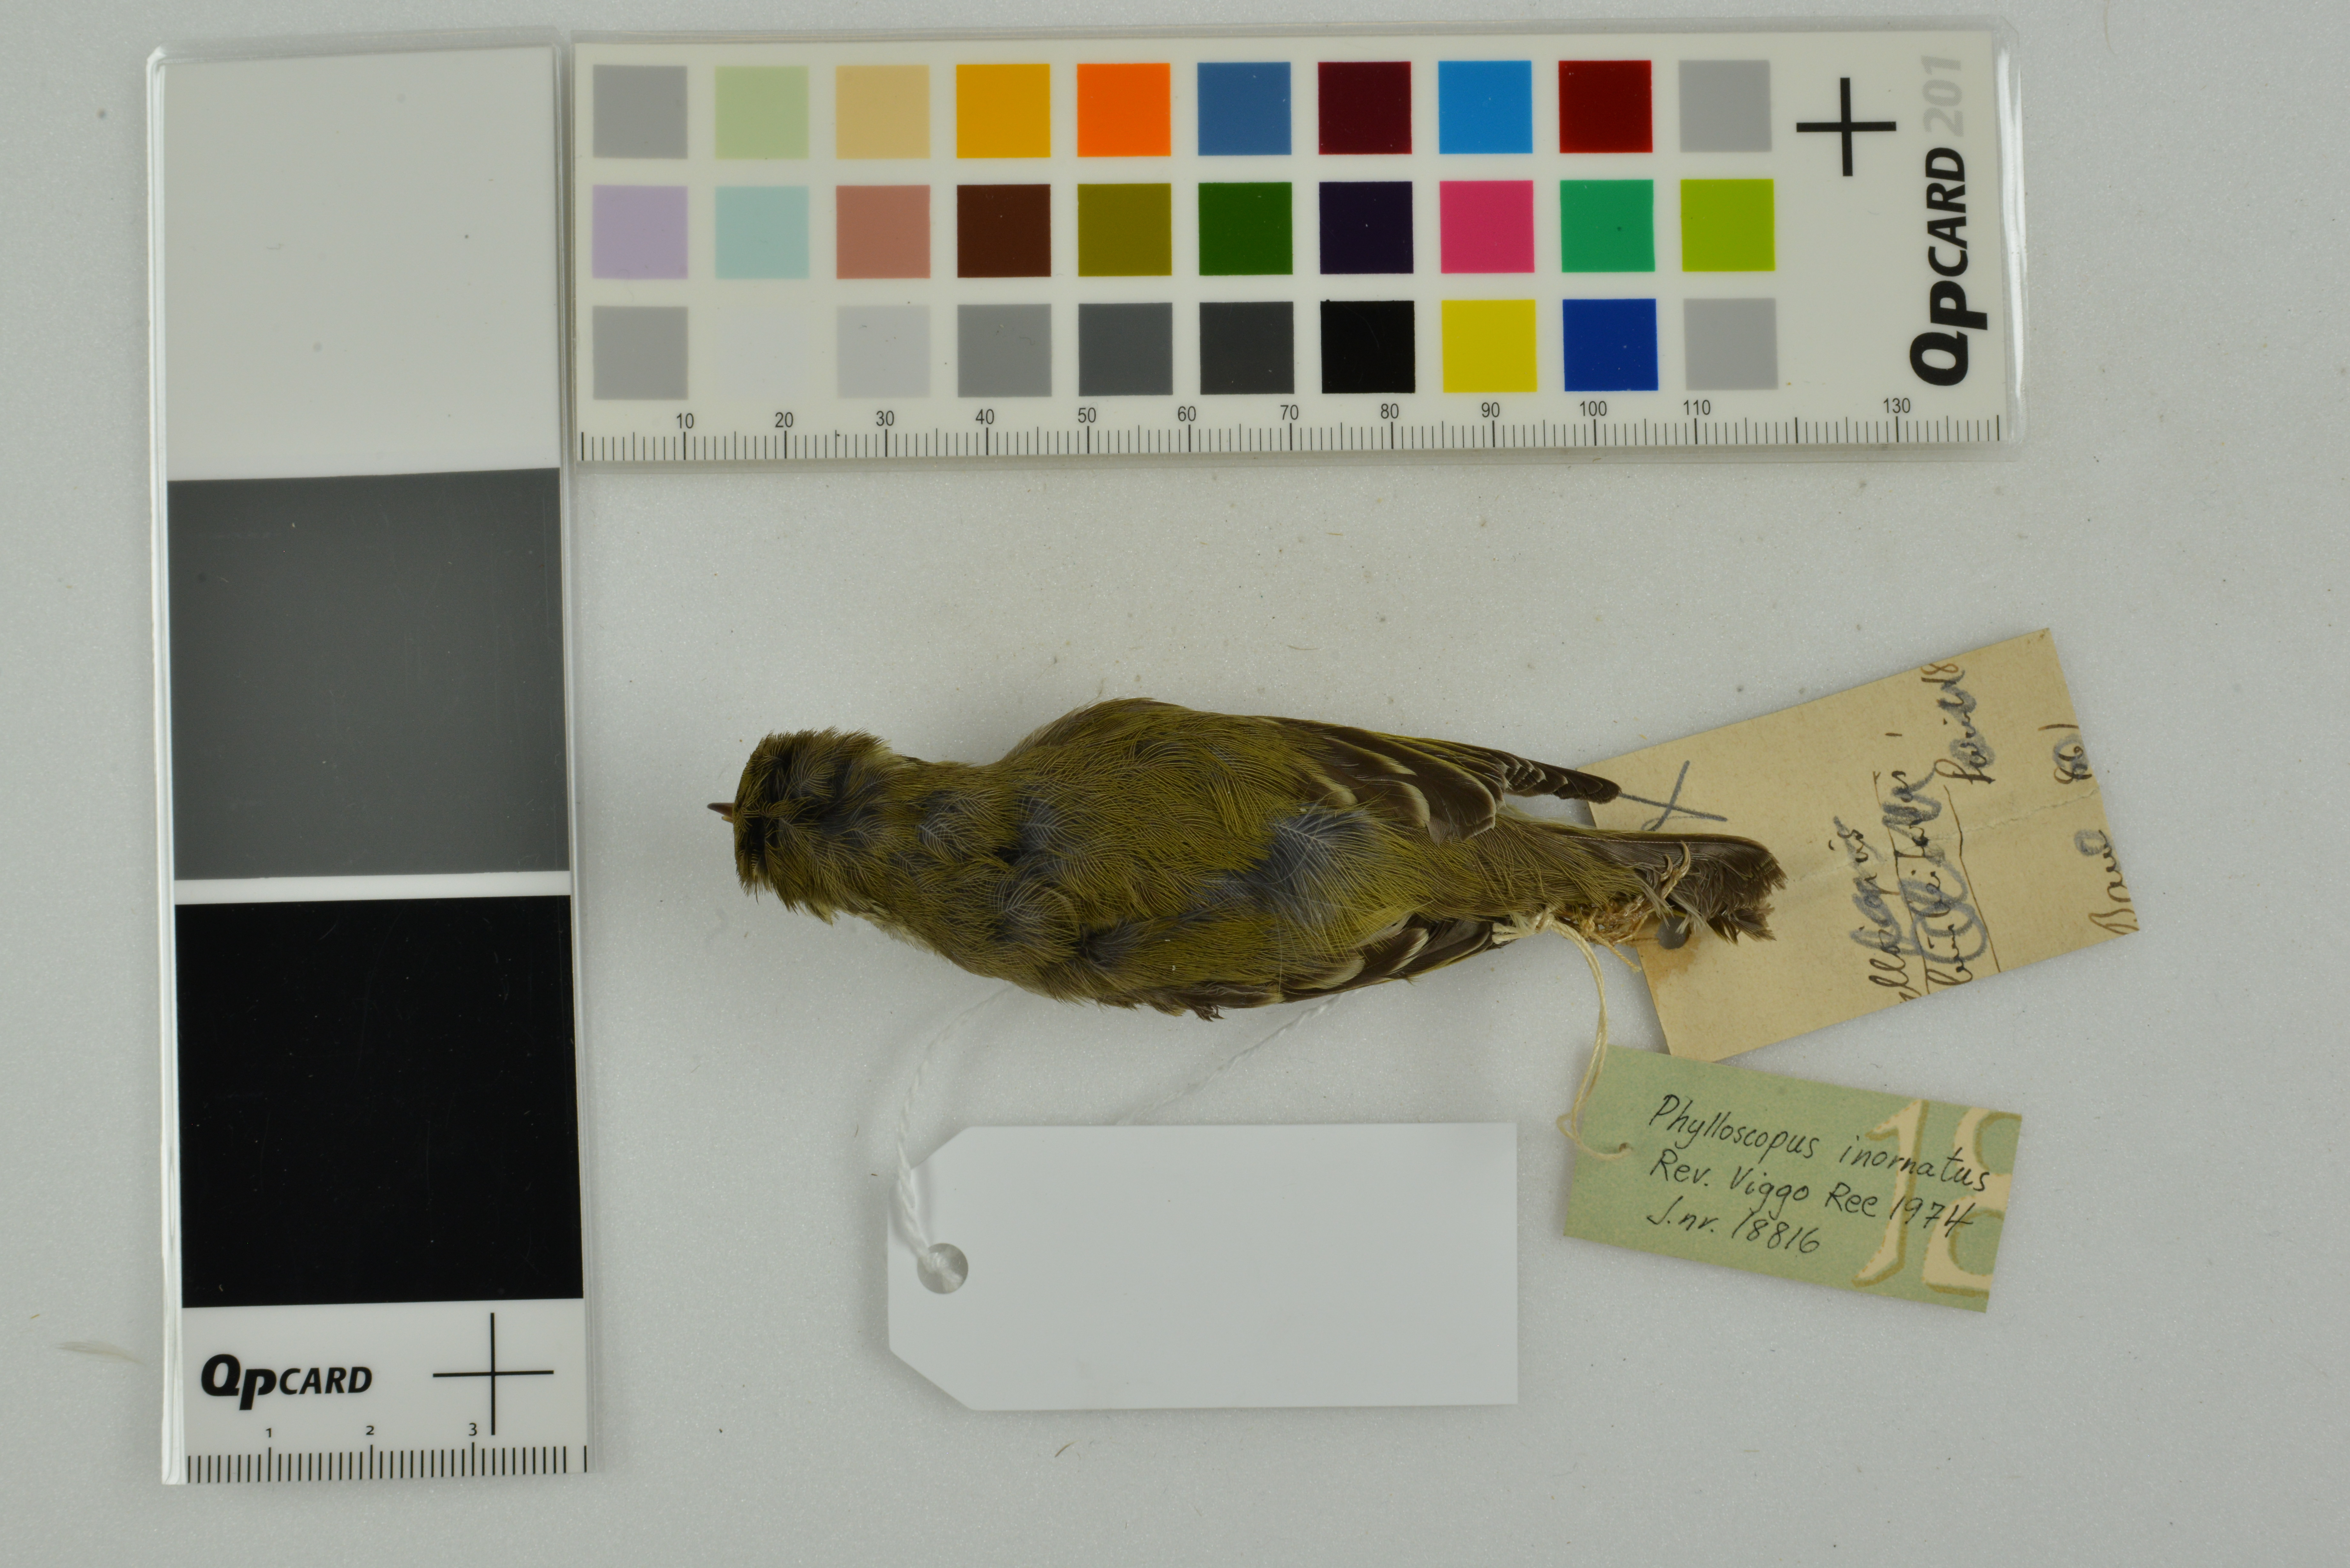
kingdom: Animalia
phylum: Chordata
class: Aves
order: Passeriformes
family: Phylloscopidae
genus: Phylloscopus
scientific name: Phylloscopus inornatus
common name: Yellow-browed warbler
